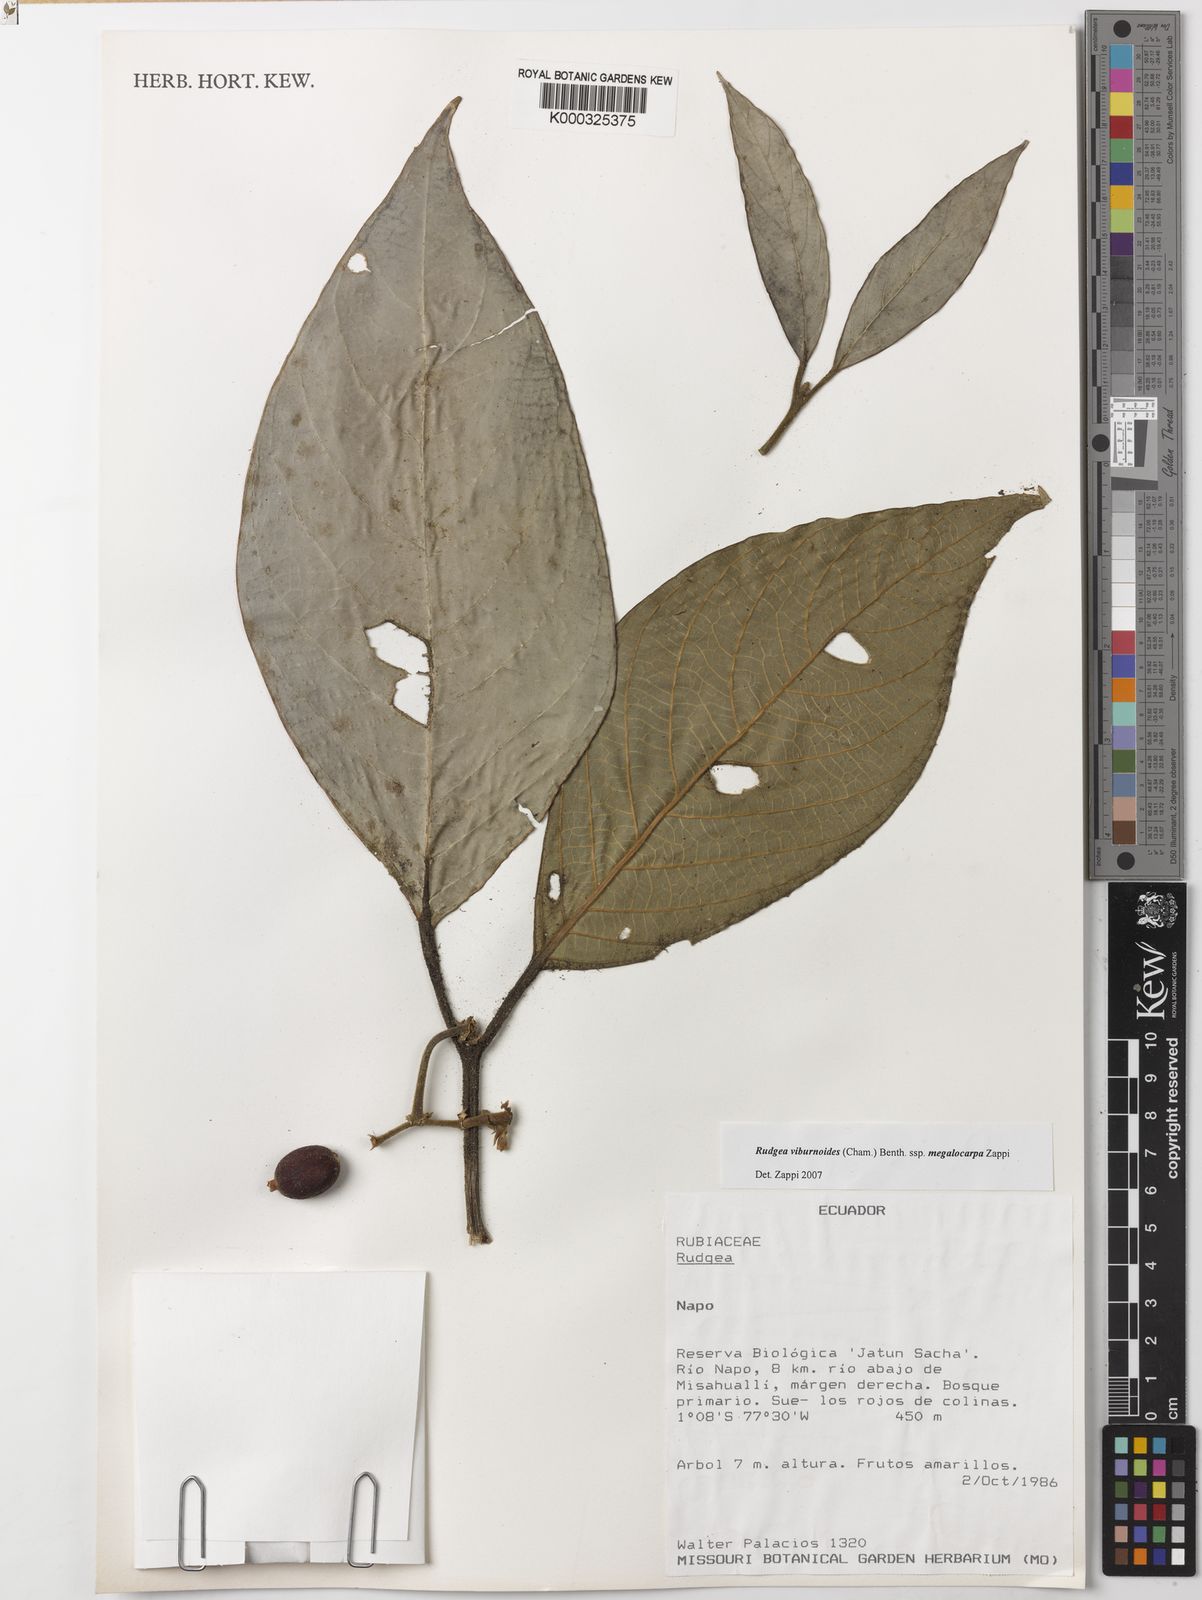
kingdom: Plantae
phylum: Tracheophyta
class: Magnoliopsida
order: Gentianales
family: Rubiaceae
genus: Rudgea
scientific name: Rudgea viburnoides
